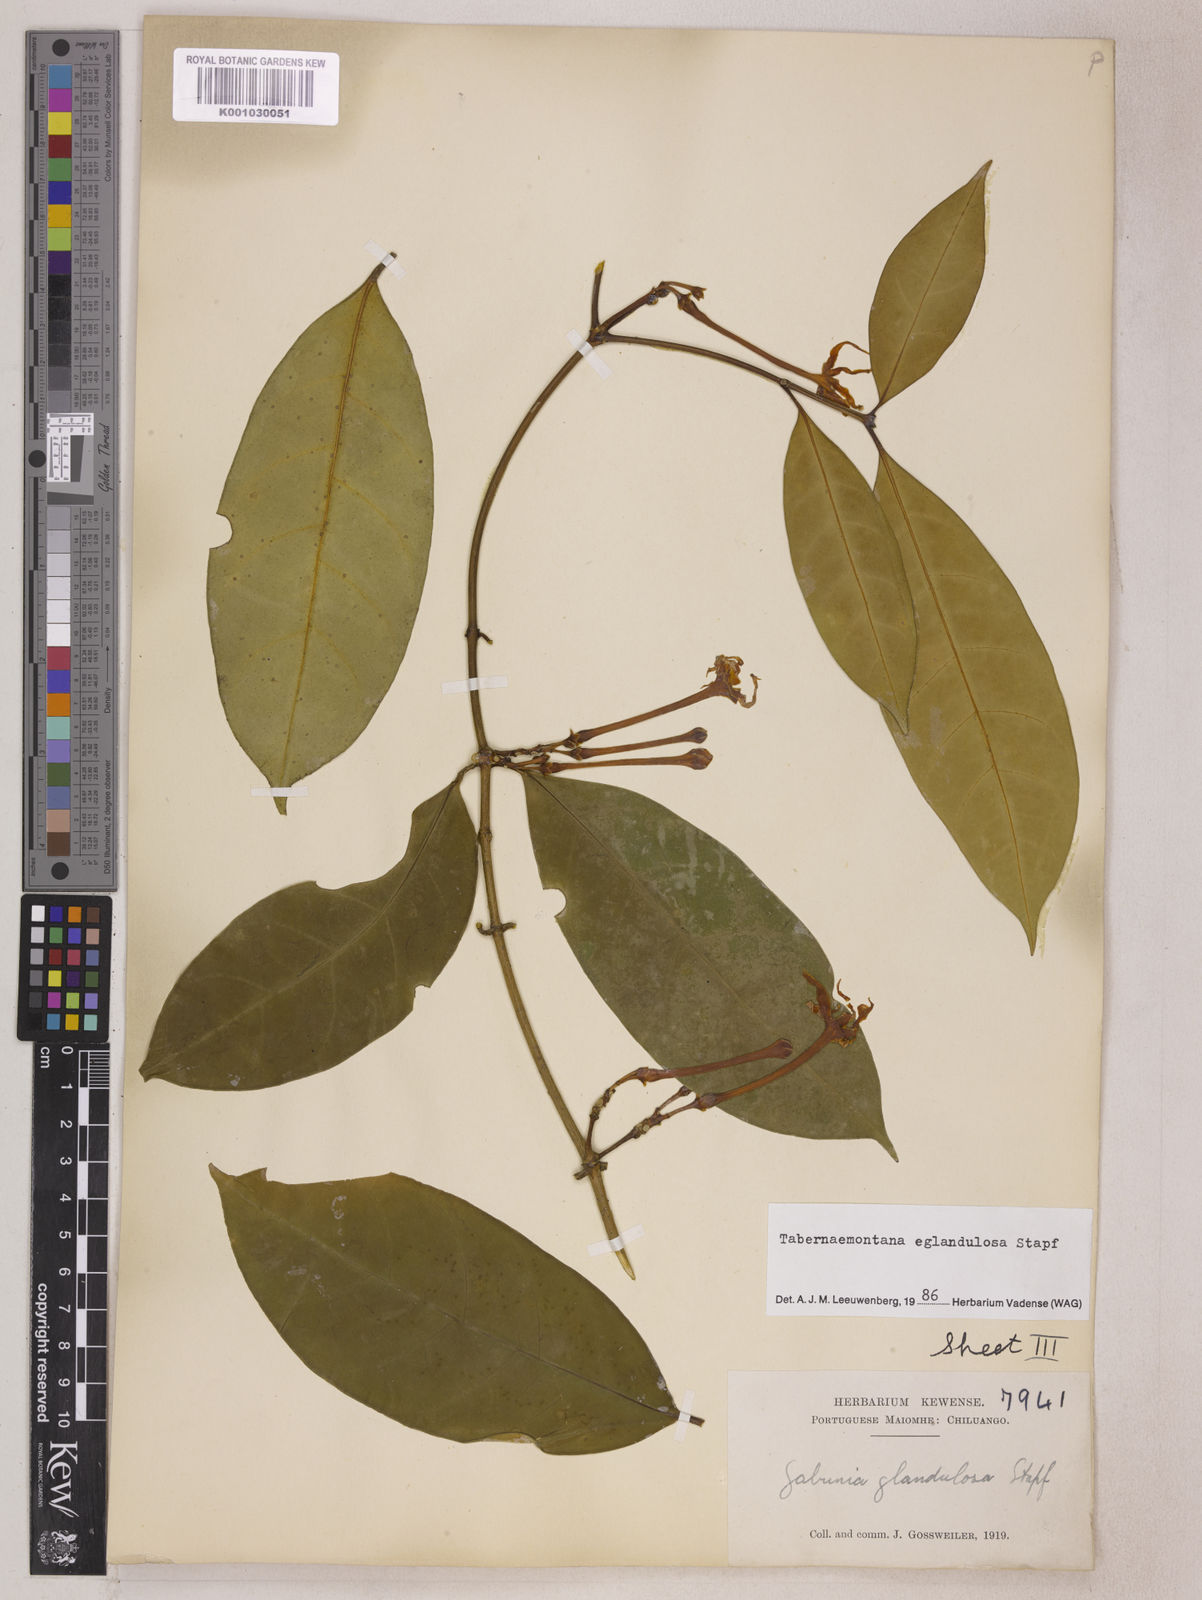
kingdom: Plantae
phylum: Tracheophyta
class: Magnoliopsida
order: Gentianales
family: Apocynaceae
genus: Tabernaemontana
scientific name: Tabernaemontana eglandulosa
